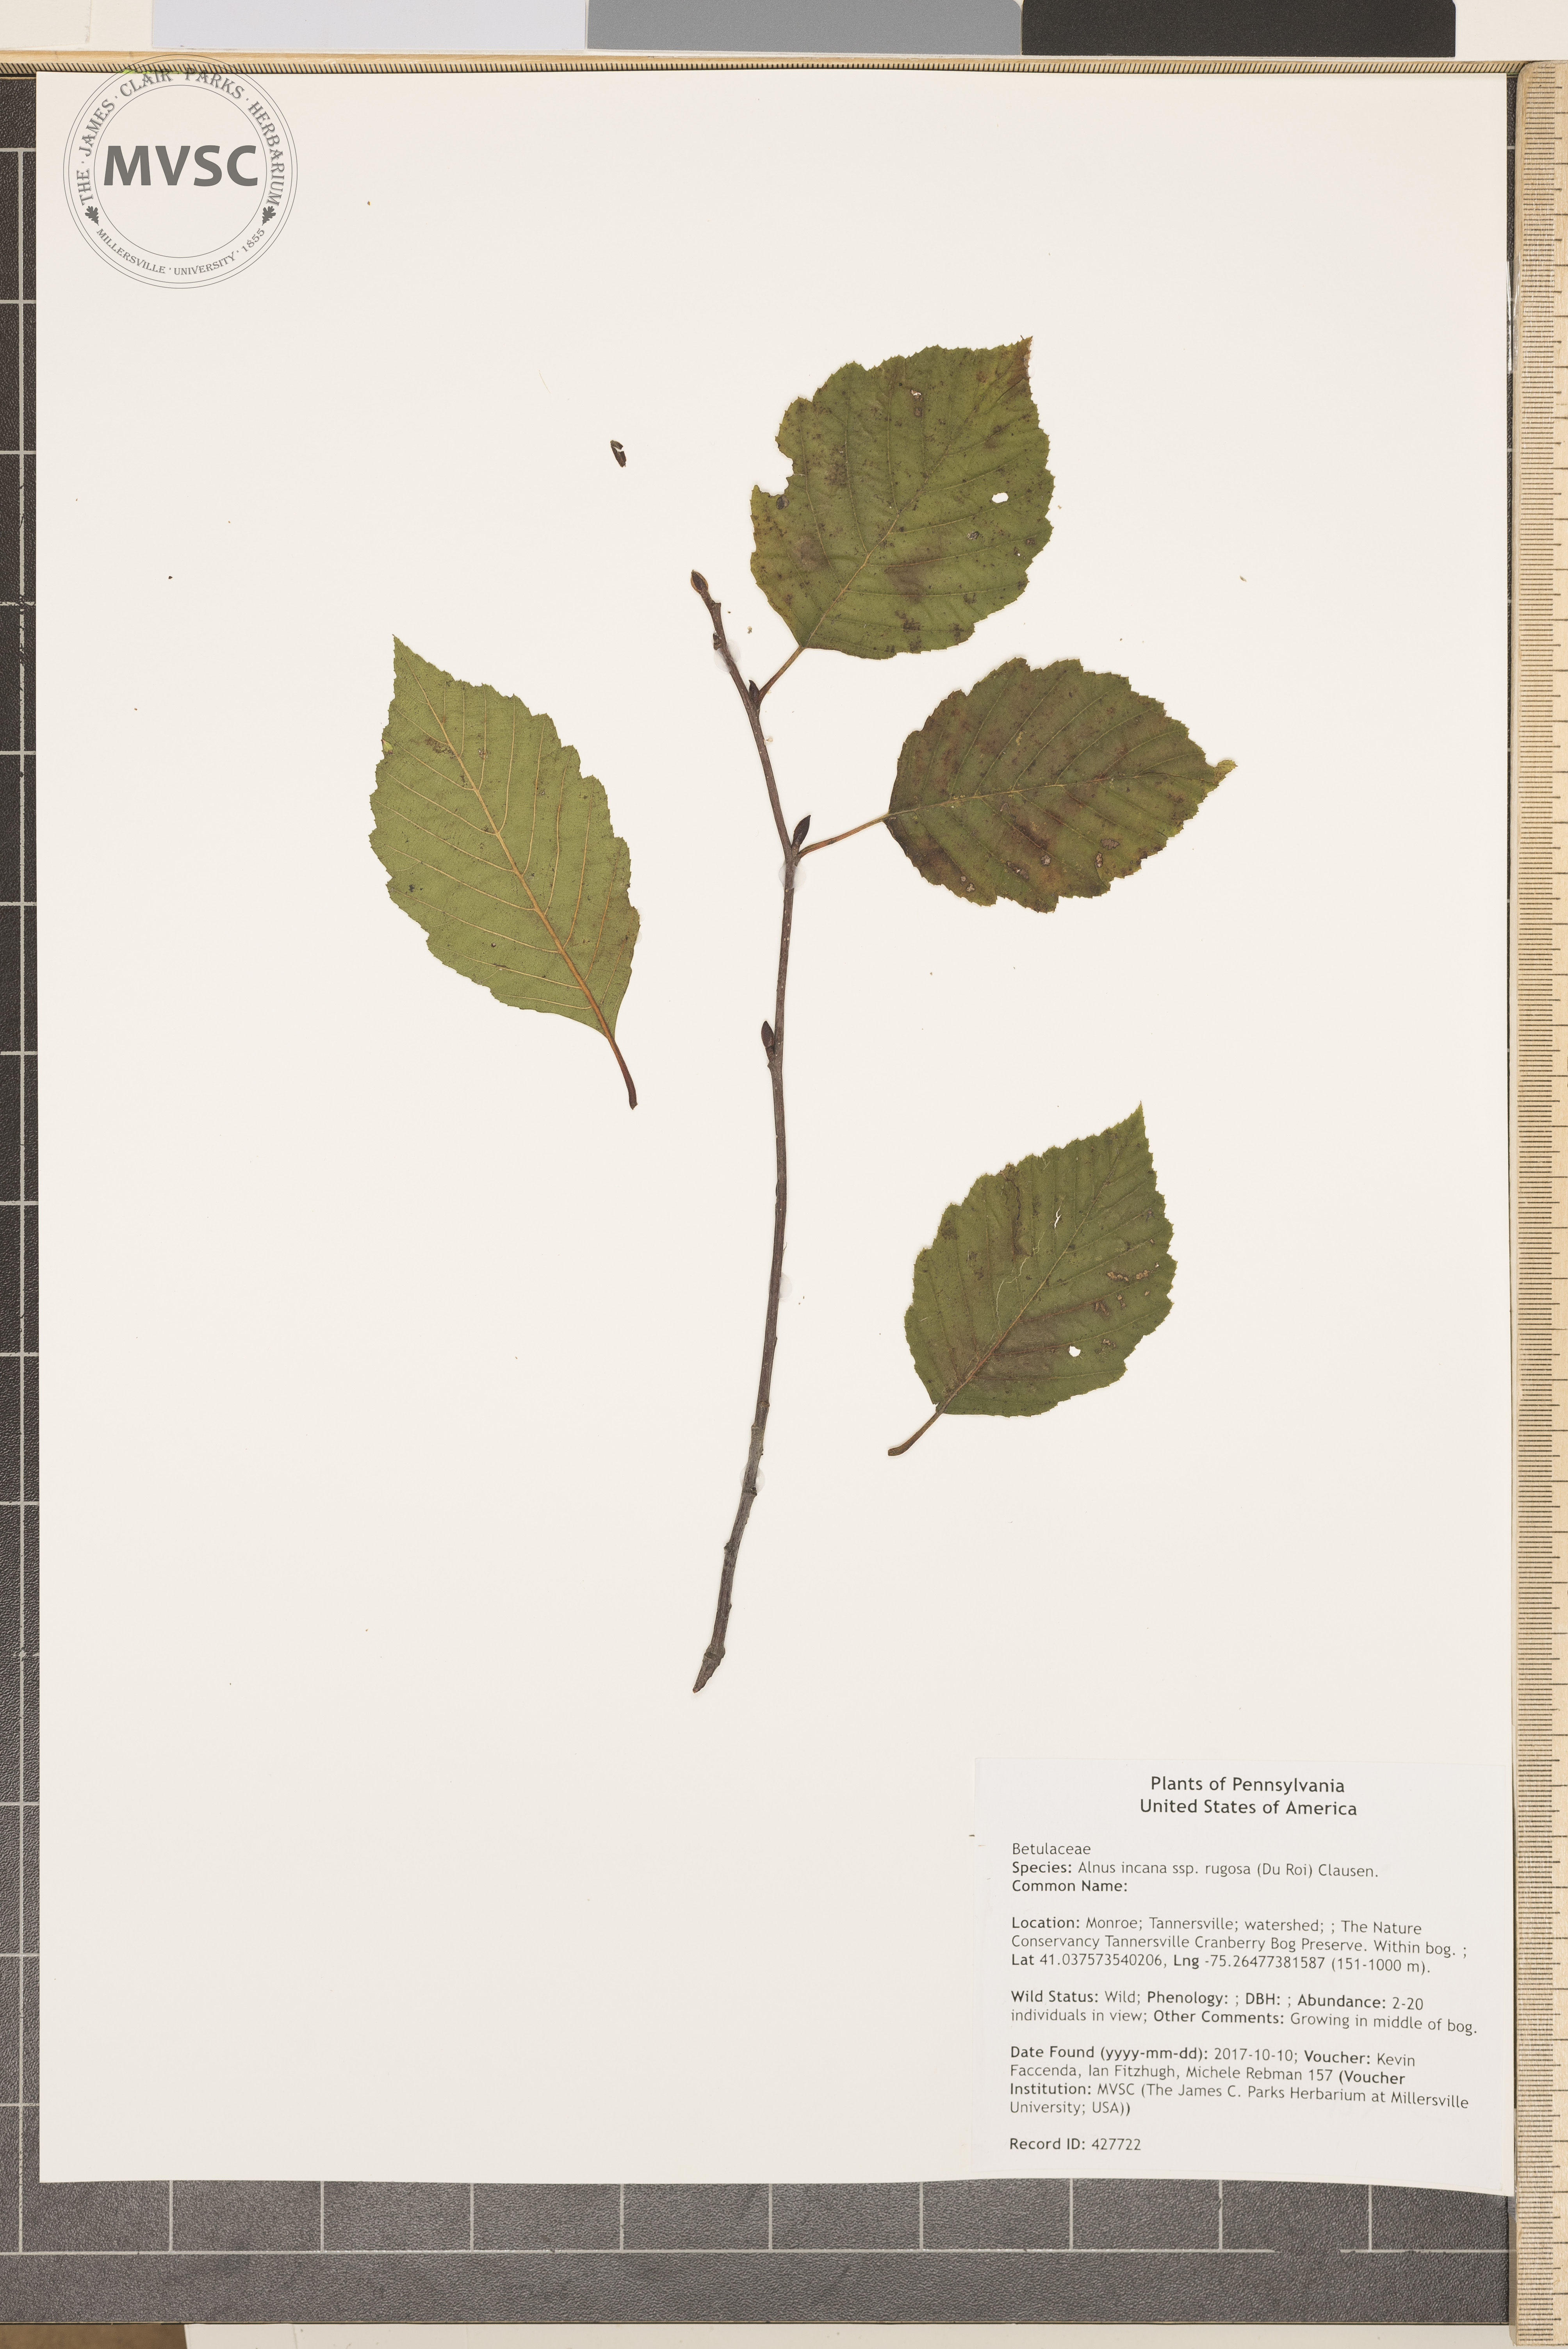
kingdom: Plantae
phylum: Tracheophyta
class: Magnoliopsida
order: Fagales
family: Betulaceae
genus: Alnus
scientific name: Alnus incana
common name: Grey alder
